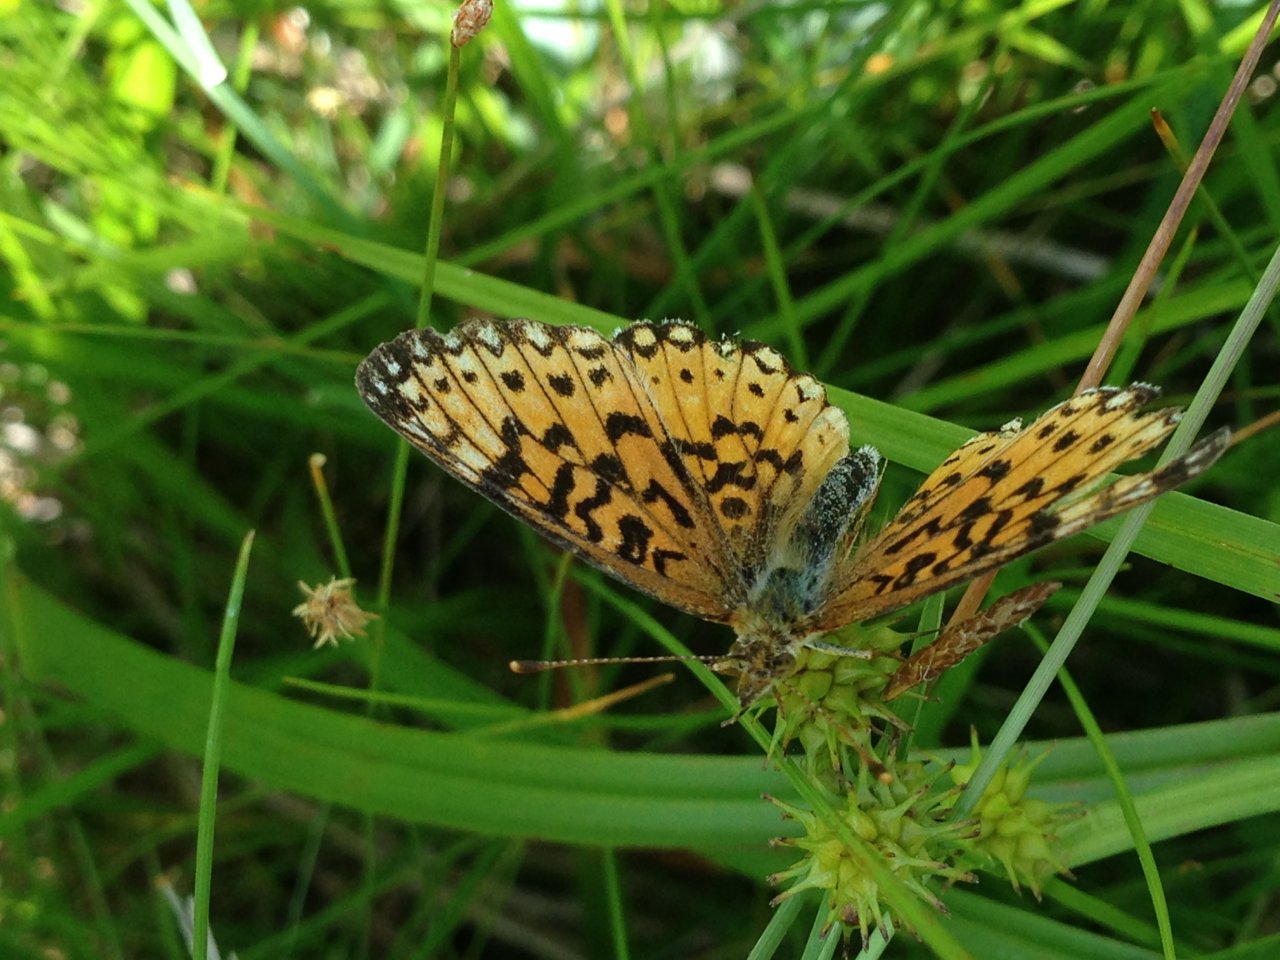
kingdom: Animalia
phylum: Arthropoda
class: Insecta
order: Lepidoptera
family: Nymphalidae
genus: Boloria
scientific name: Boloria selene
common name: Silver-bordered Fritillary
